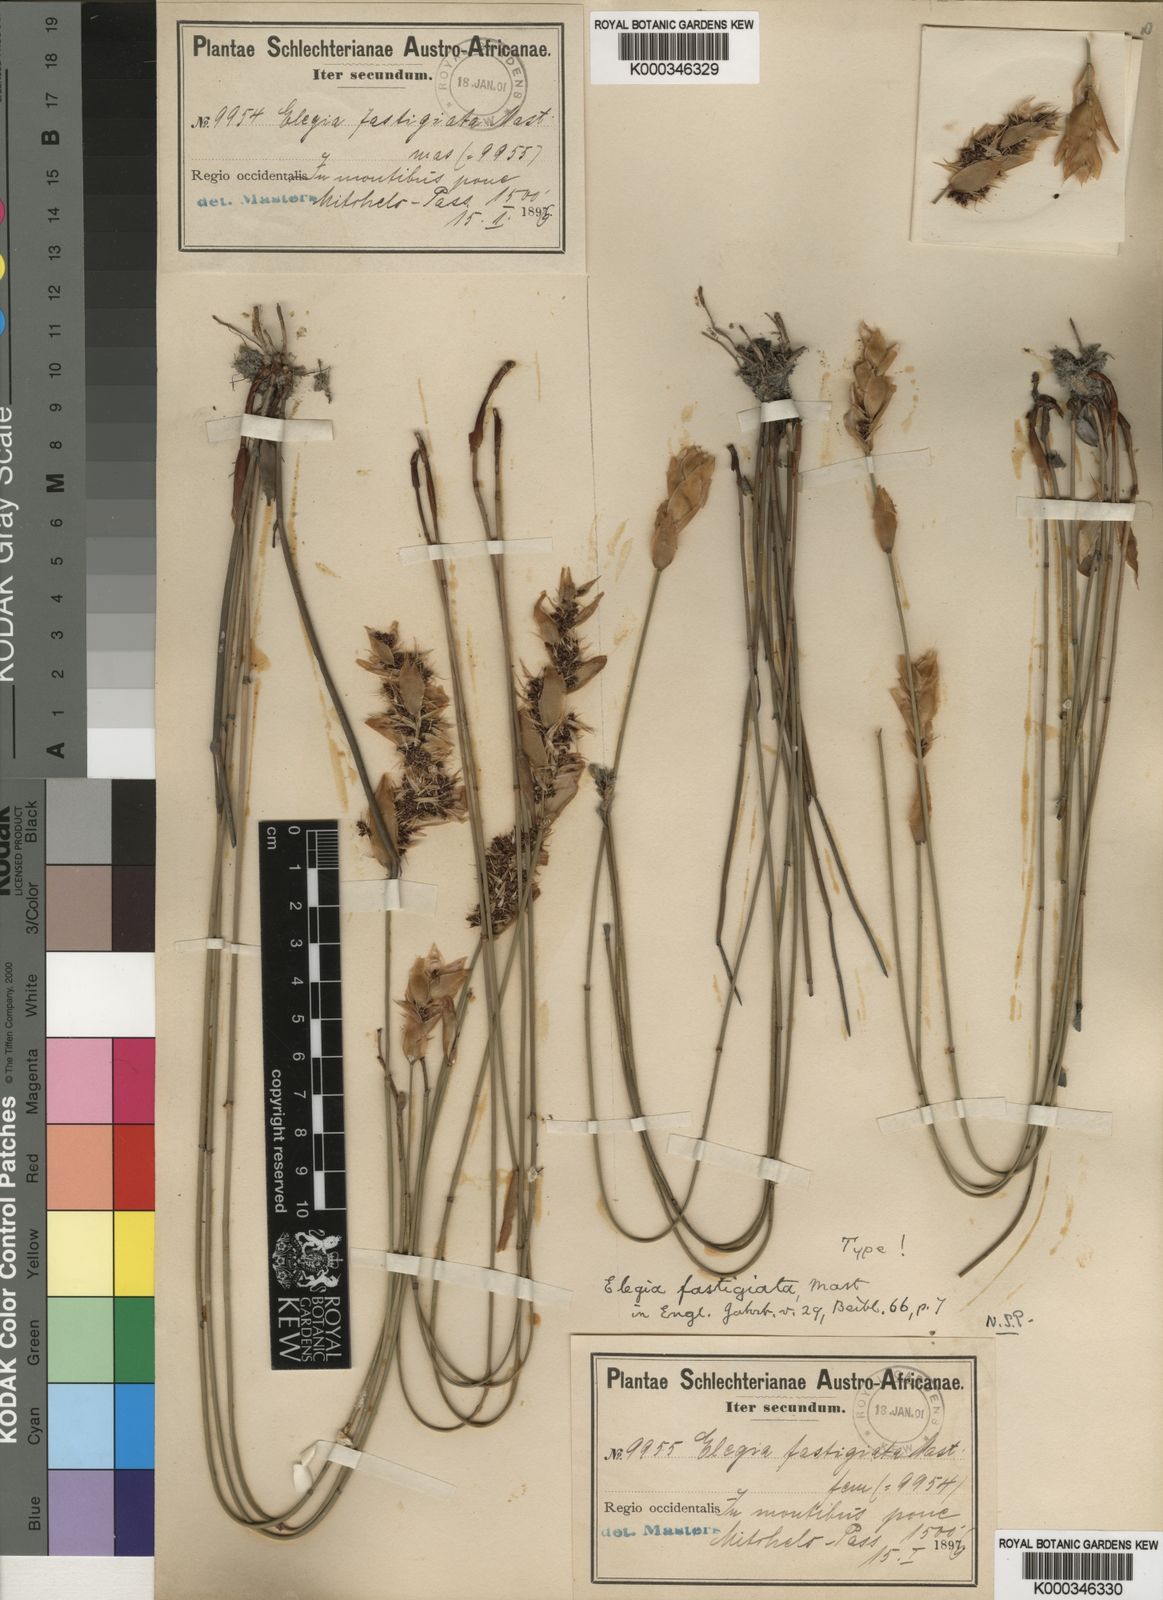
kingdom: Plantae
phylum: Tracheophyta
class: Liliopsida
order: Poales
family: Restionaceae
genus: Elegia
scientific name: Elegia fastigata
